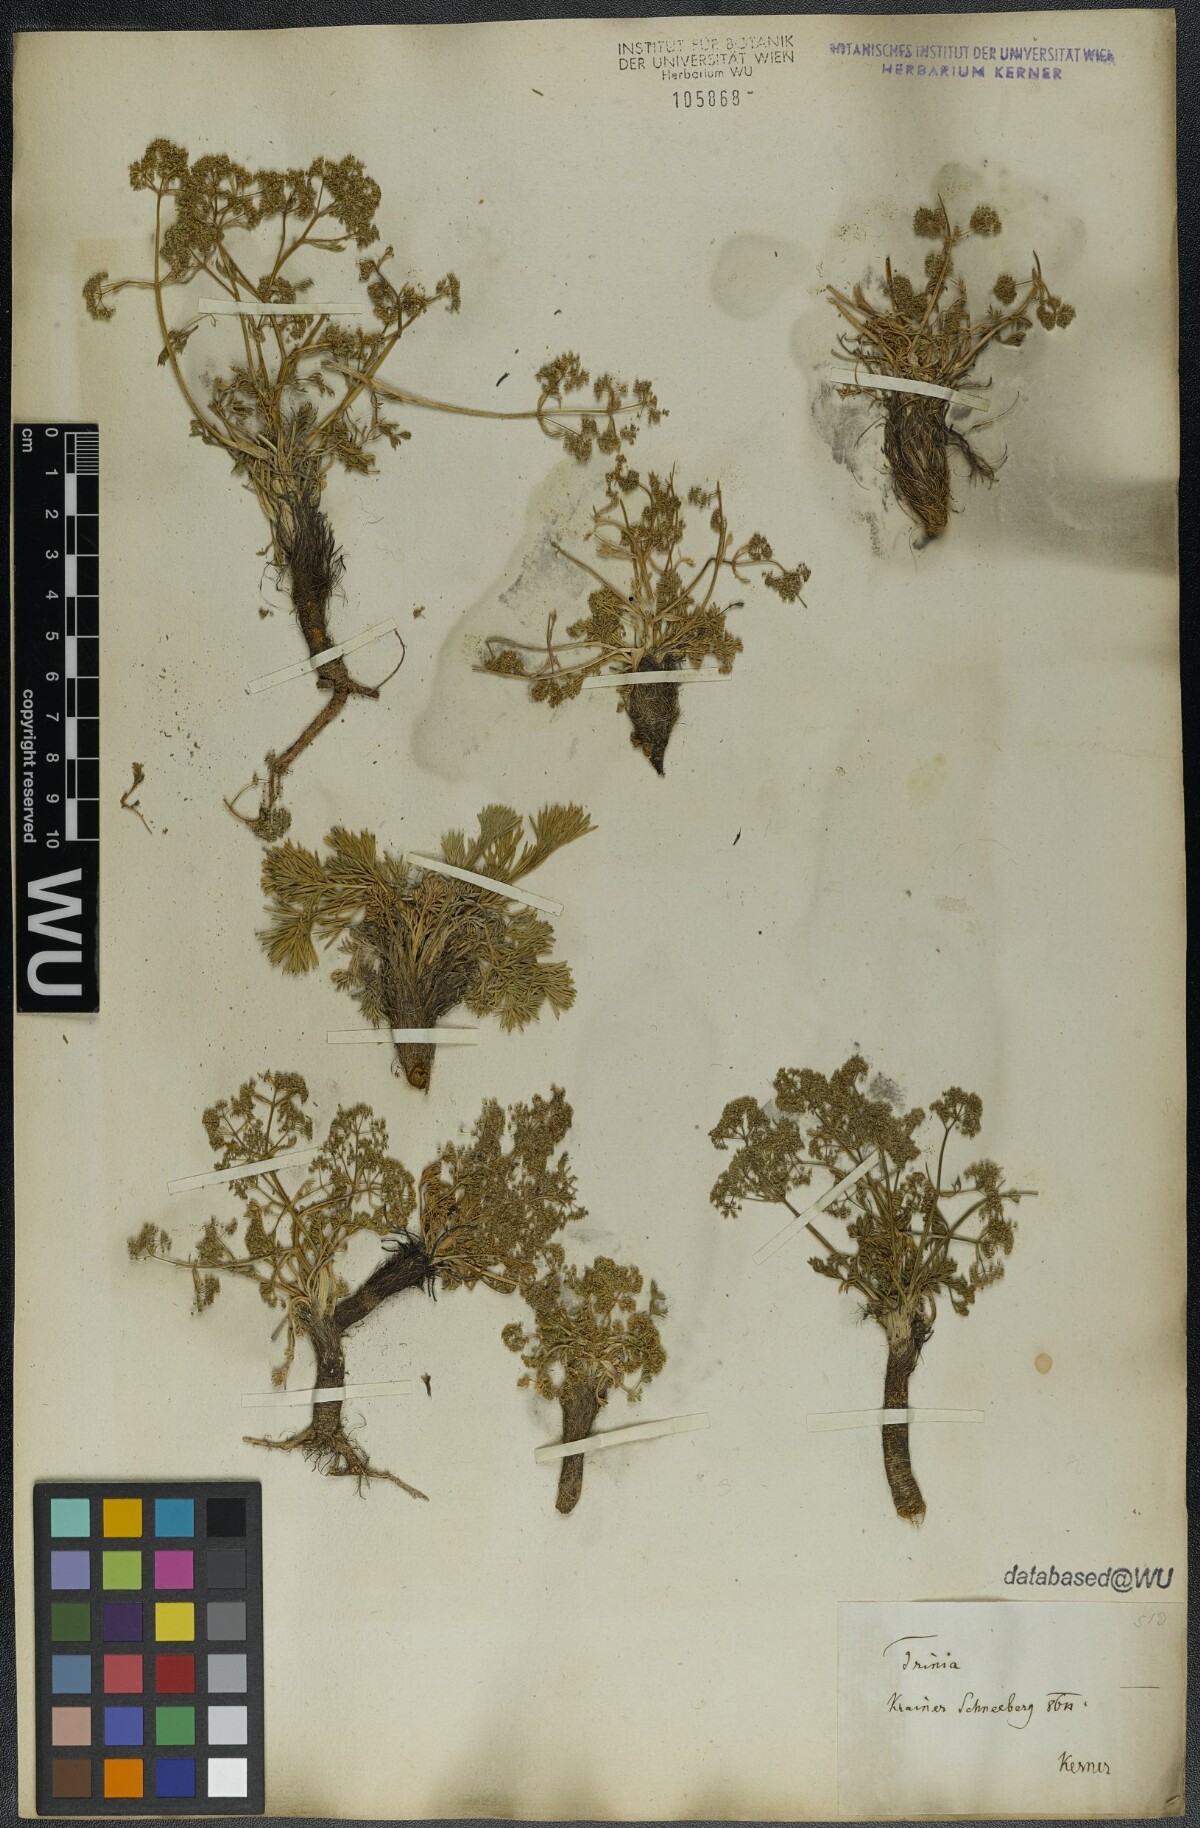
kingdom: Plantae
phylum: Tracheophyta
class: Magnoliopsida
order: Apiales
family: Apiaceae
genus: Trinia
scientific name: Trinia dalechampii
